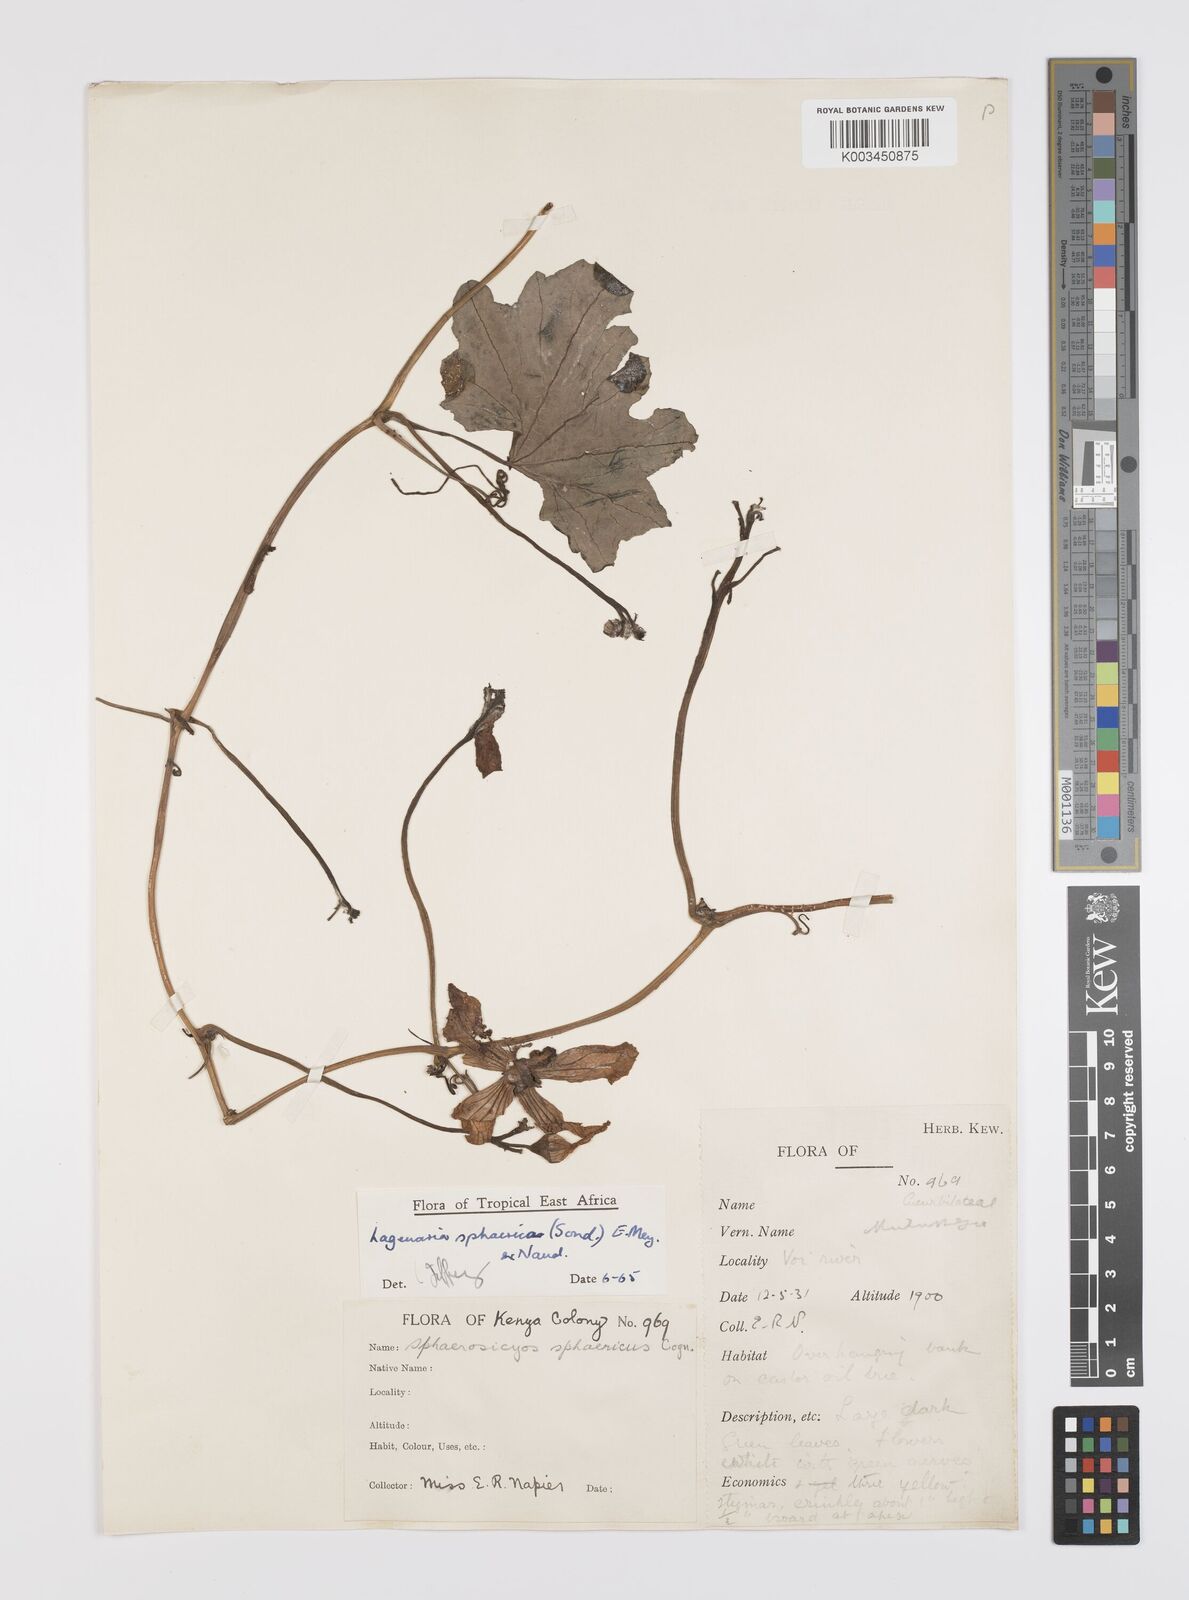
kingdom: Plantae
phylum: Tracheophyta
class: Magnoliopsida
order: Cucurbitales
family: Cucurbitaceae
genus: Lagenaria
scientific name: Lagenaria sphaerica
